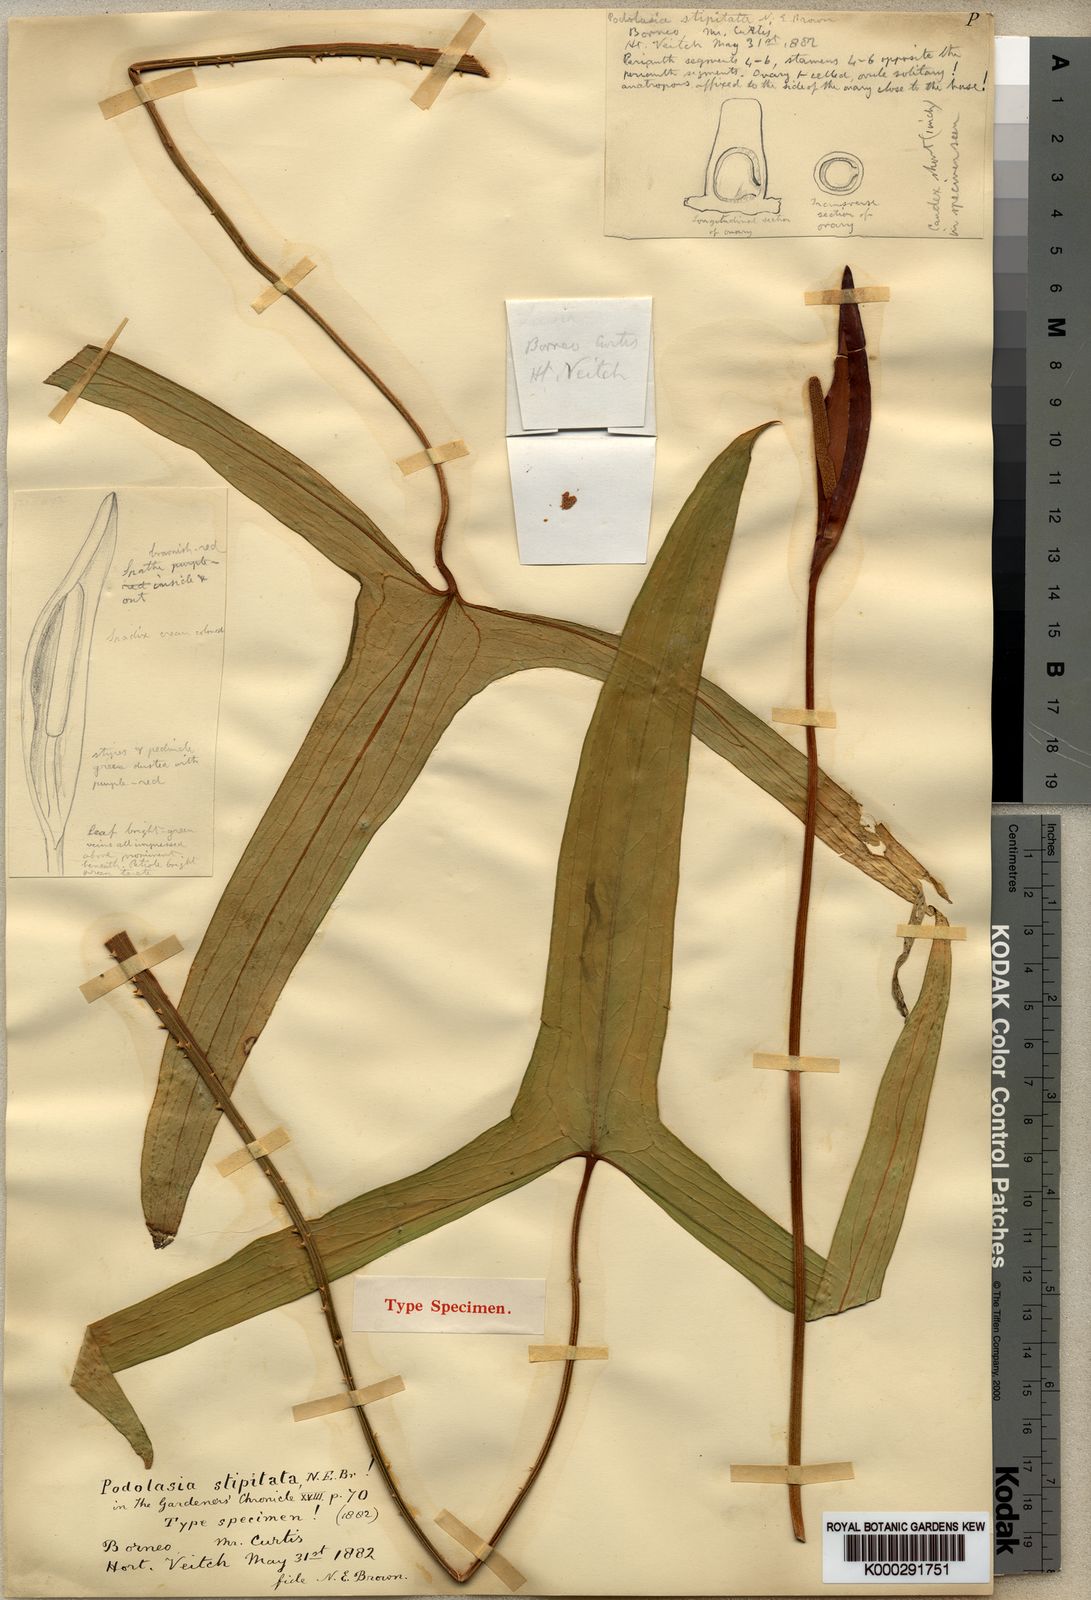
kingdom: Plantae
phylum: Tracheophyta
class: Liliopsida
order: Alismatales
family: Araceae
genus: Podolasia
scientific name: Podolasia stipitata
